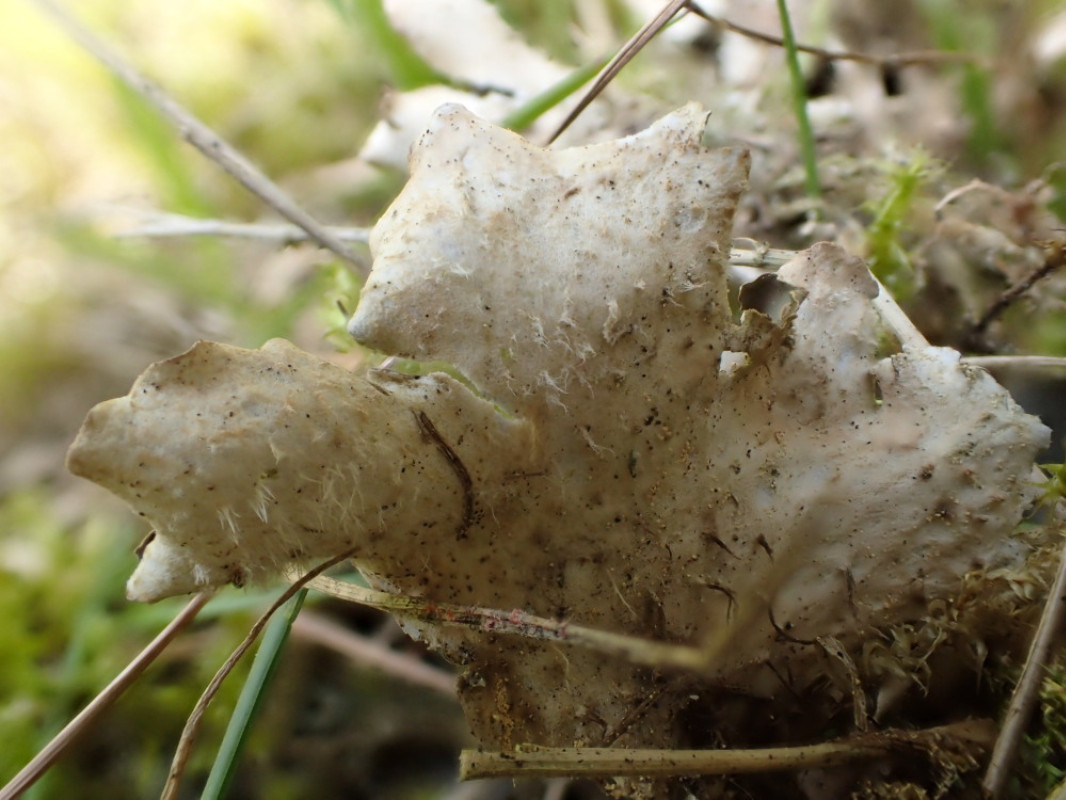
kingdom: Fungi
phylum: Ascomycota
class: Lecanoromycetes
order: Peltigerales
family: Peltigeraceae
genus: Peltigera
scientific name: Peltigera hymenina
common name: hinde-skjoldlav
